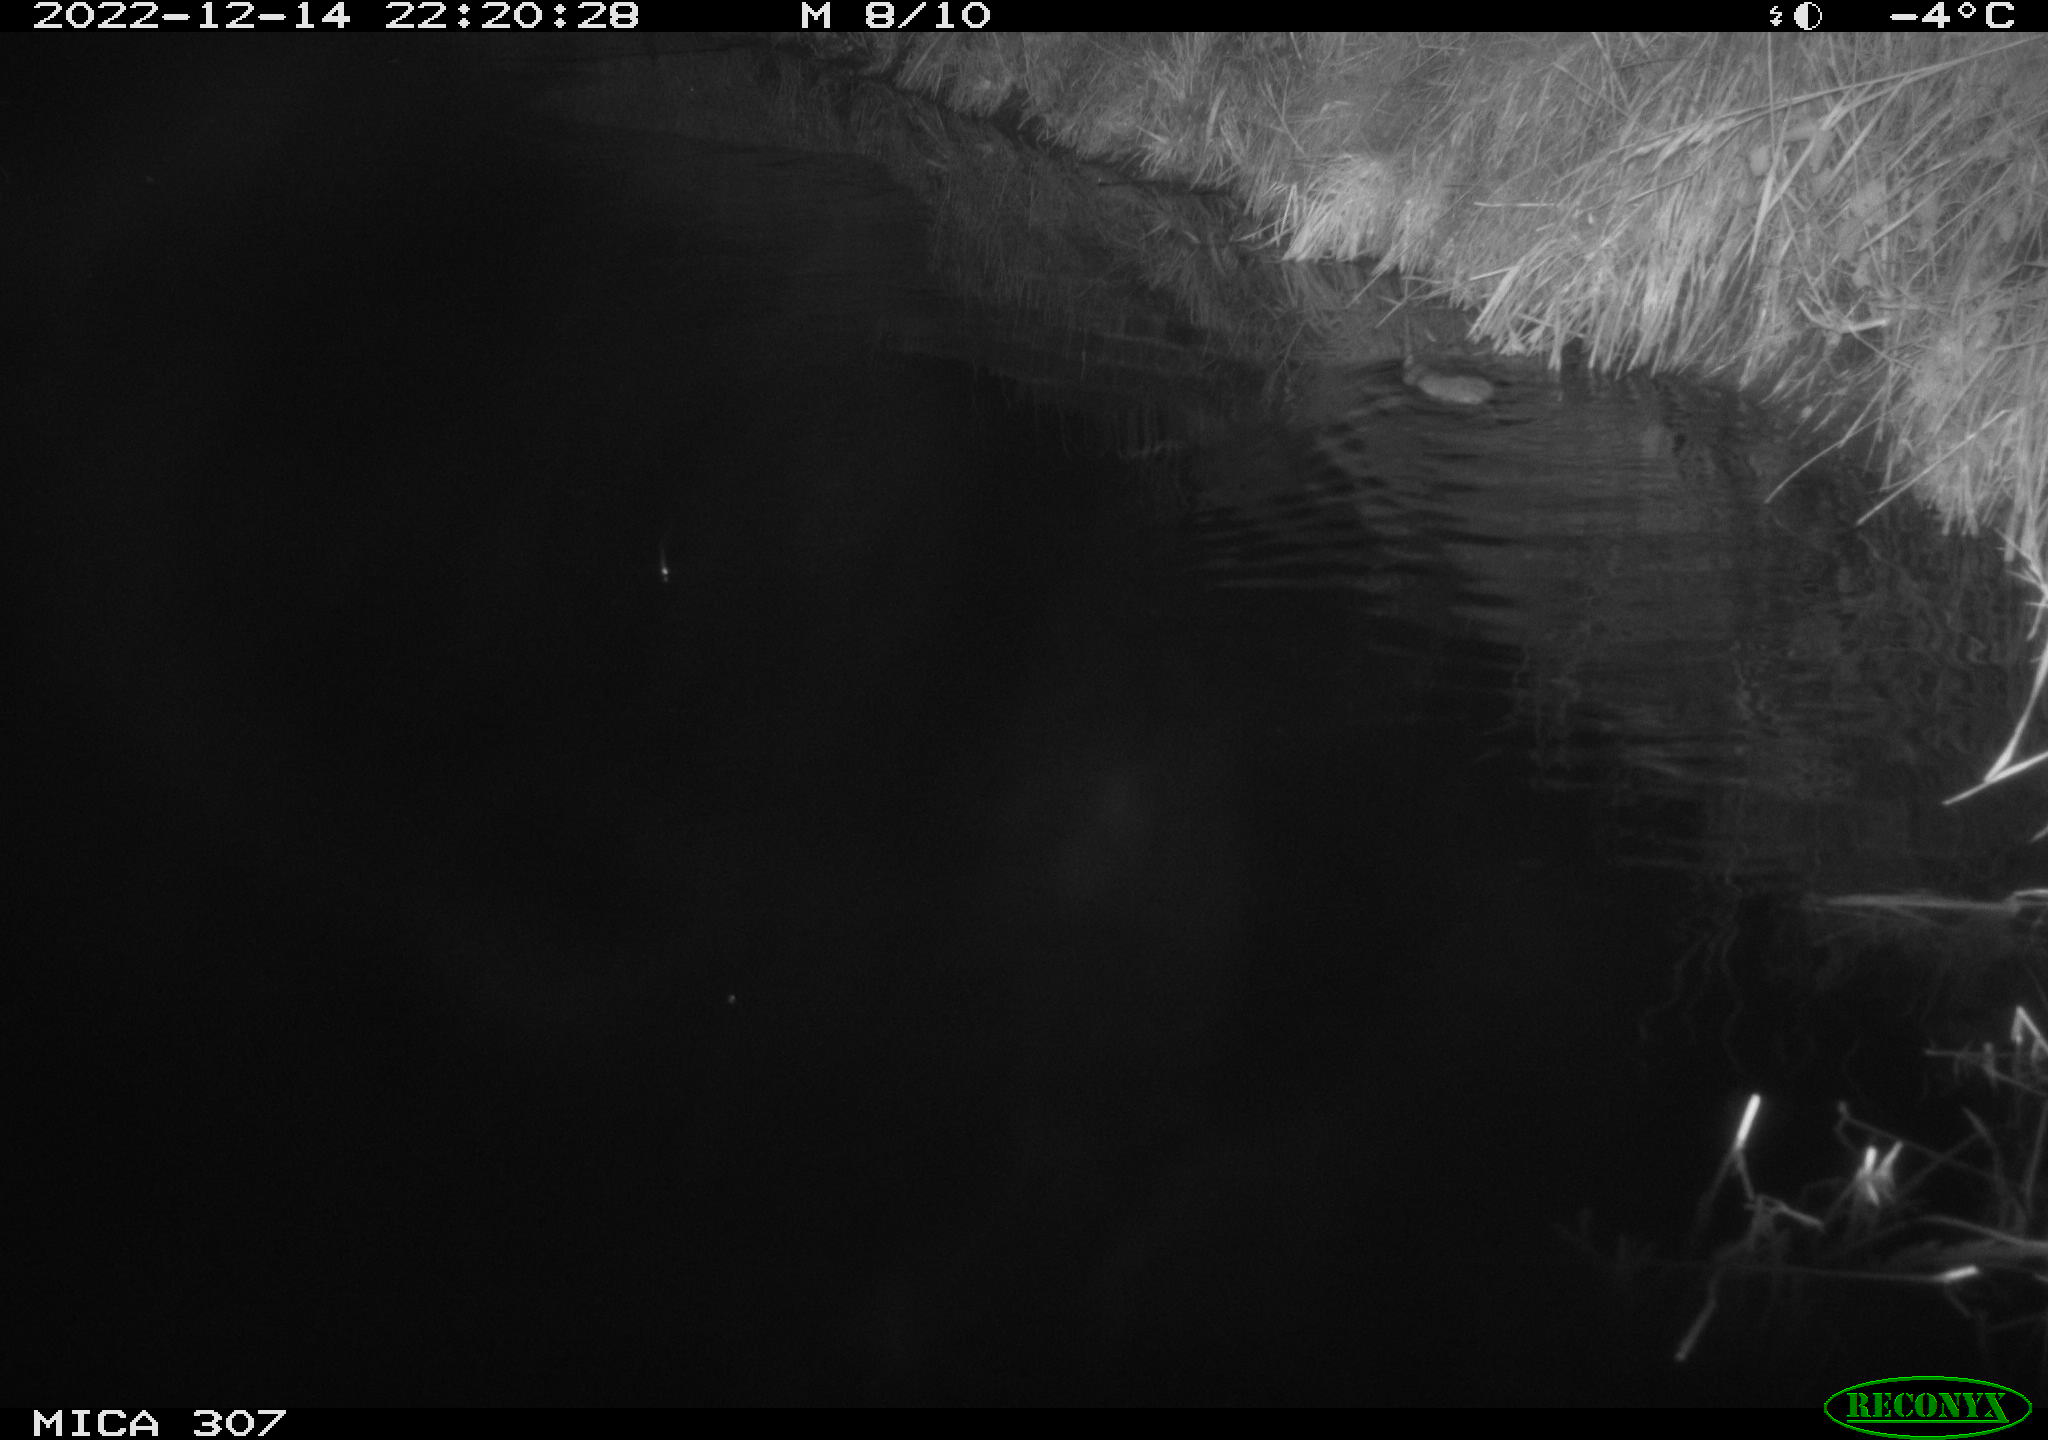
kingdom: Animalia
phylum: Chordata
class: Mammalia
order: Rodentia
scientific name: Rodentia
